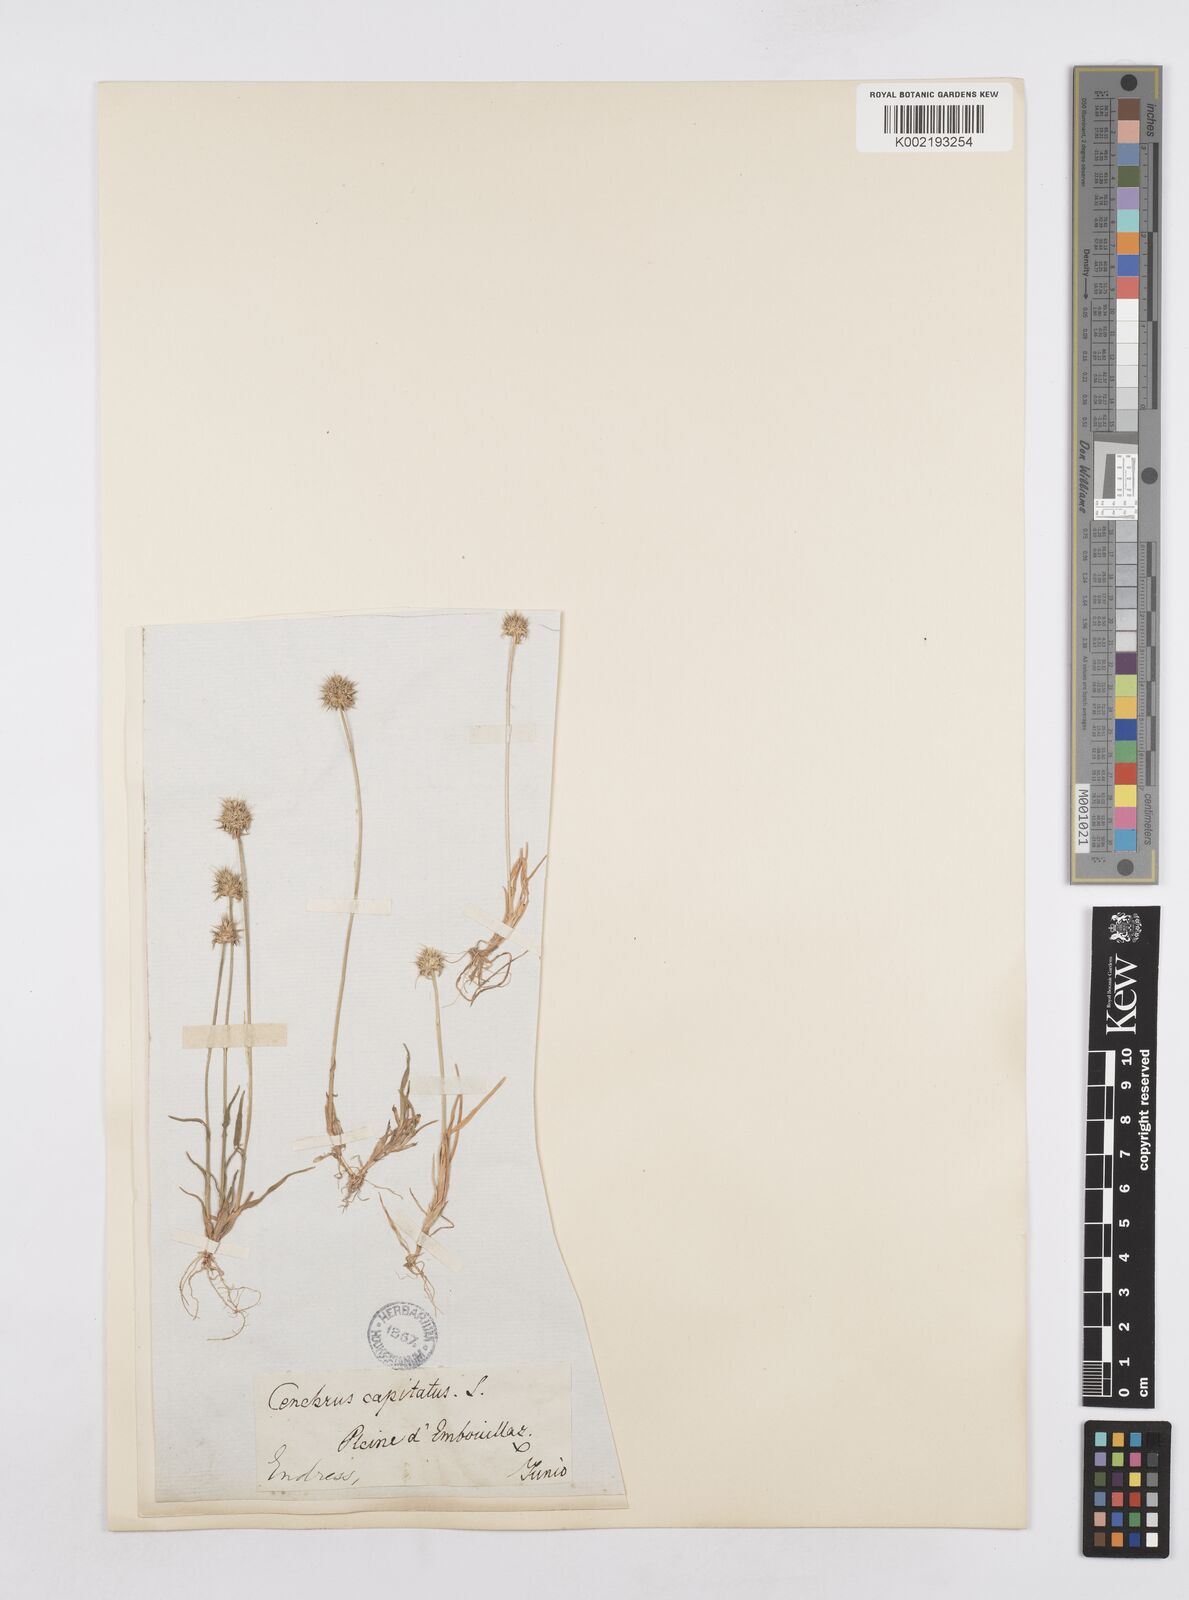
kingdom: Plantae
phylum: Tracheophyta
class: Liliopsida
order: Poales
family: Poaceae
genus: Echinaria
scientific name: Echinaria capitata
